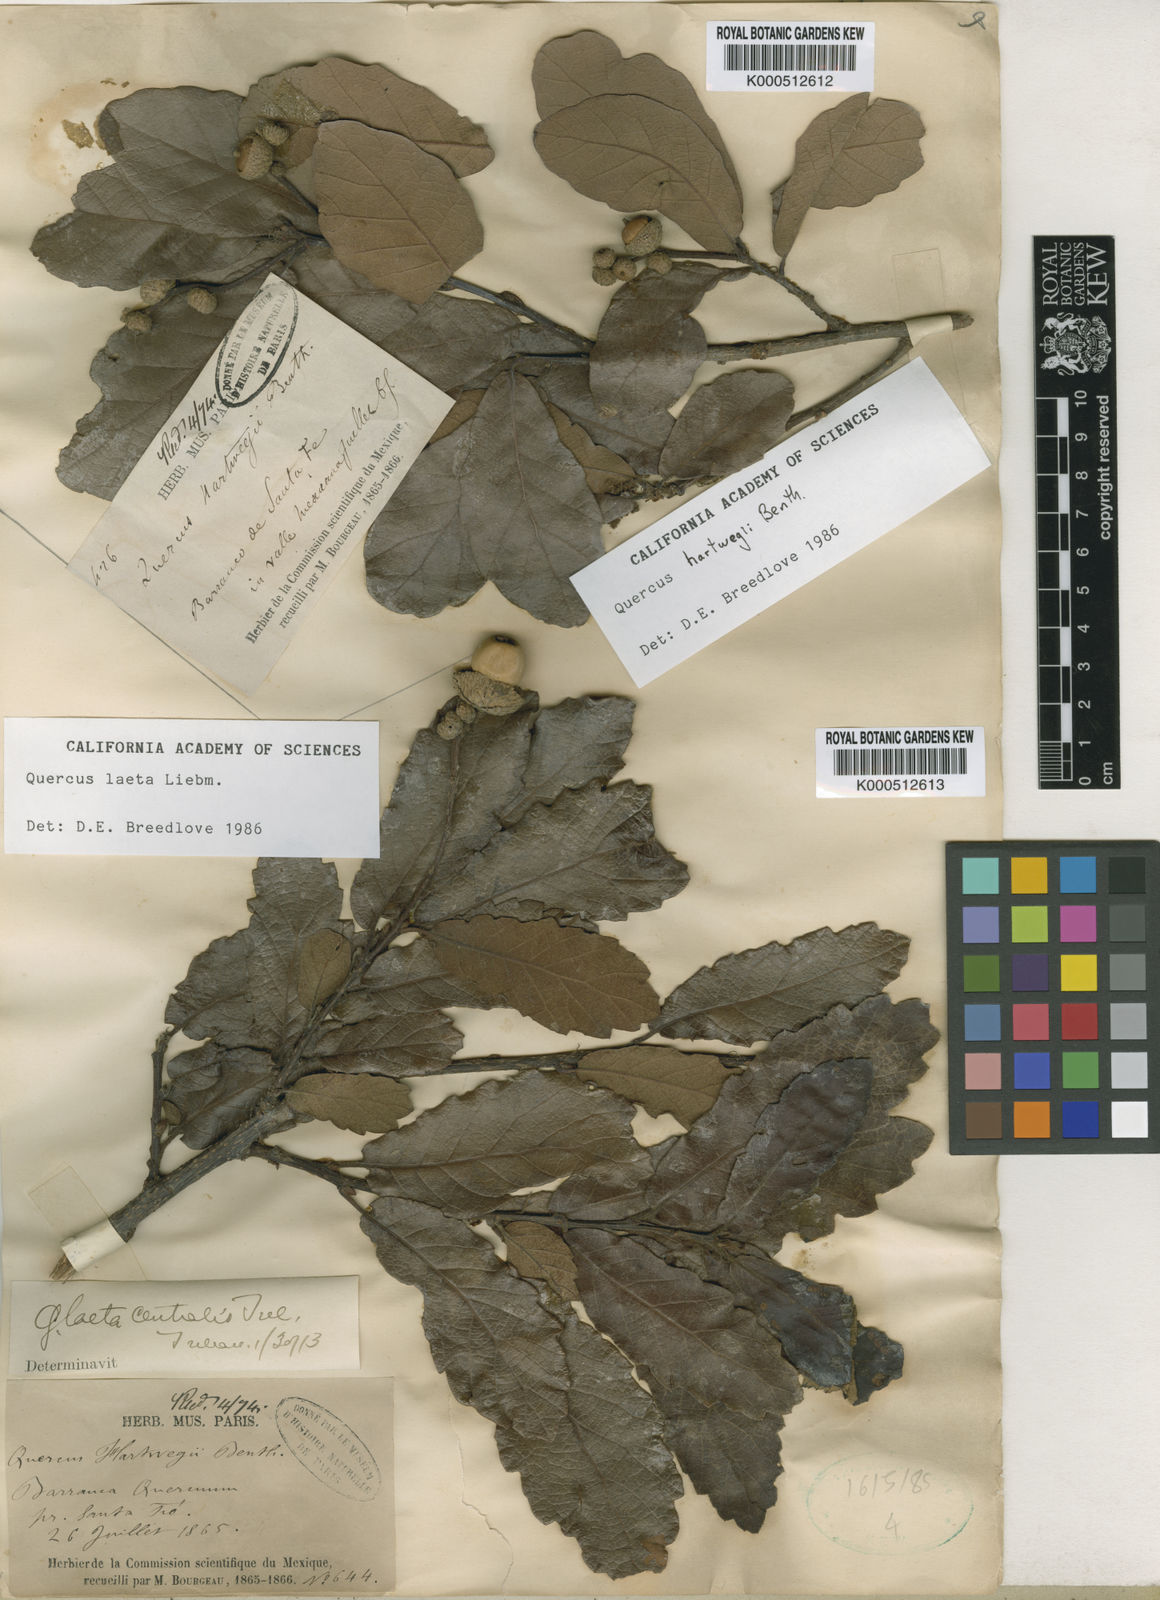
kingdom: Plantae
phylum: Tracheophyta
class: Magnoliopsida
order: Fagales
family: Fagaceae
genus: Quercus
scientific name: Quercus laeta
